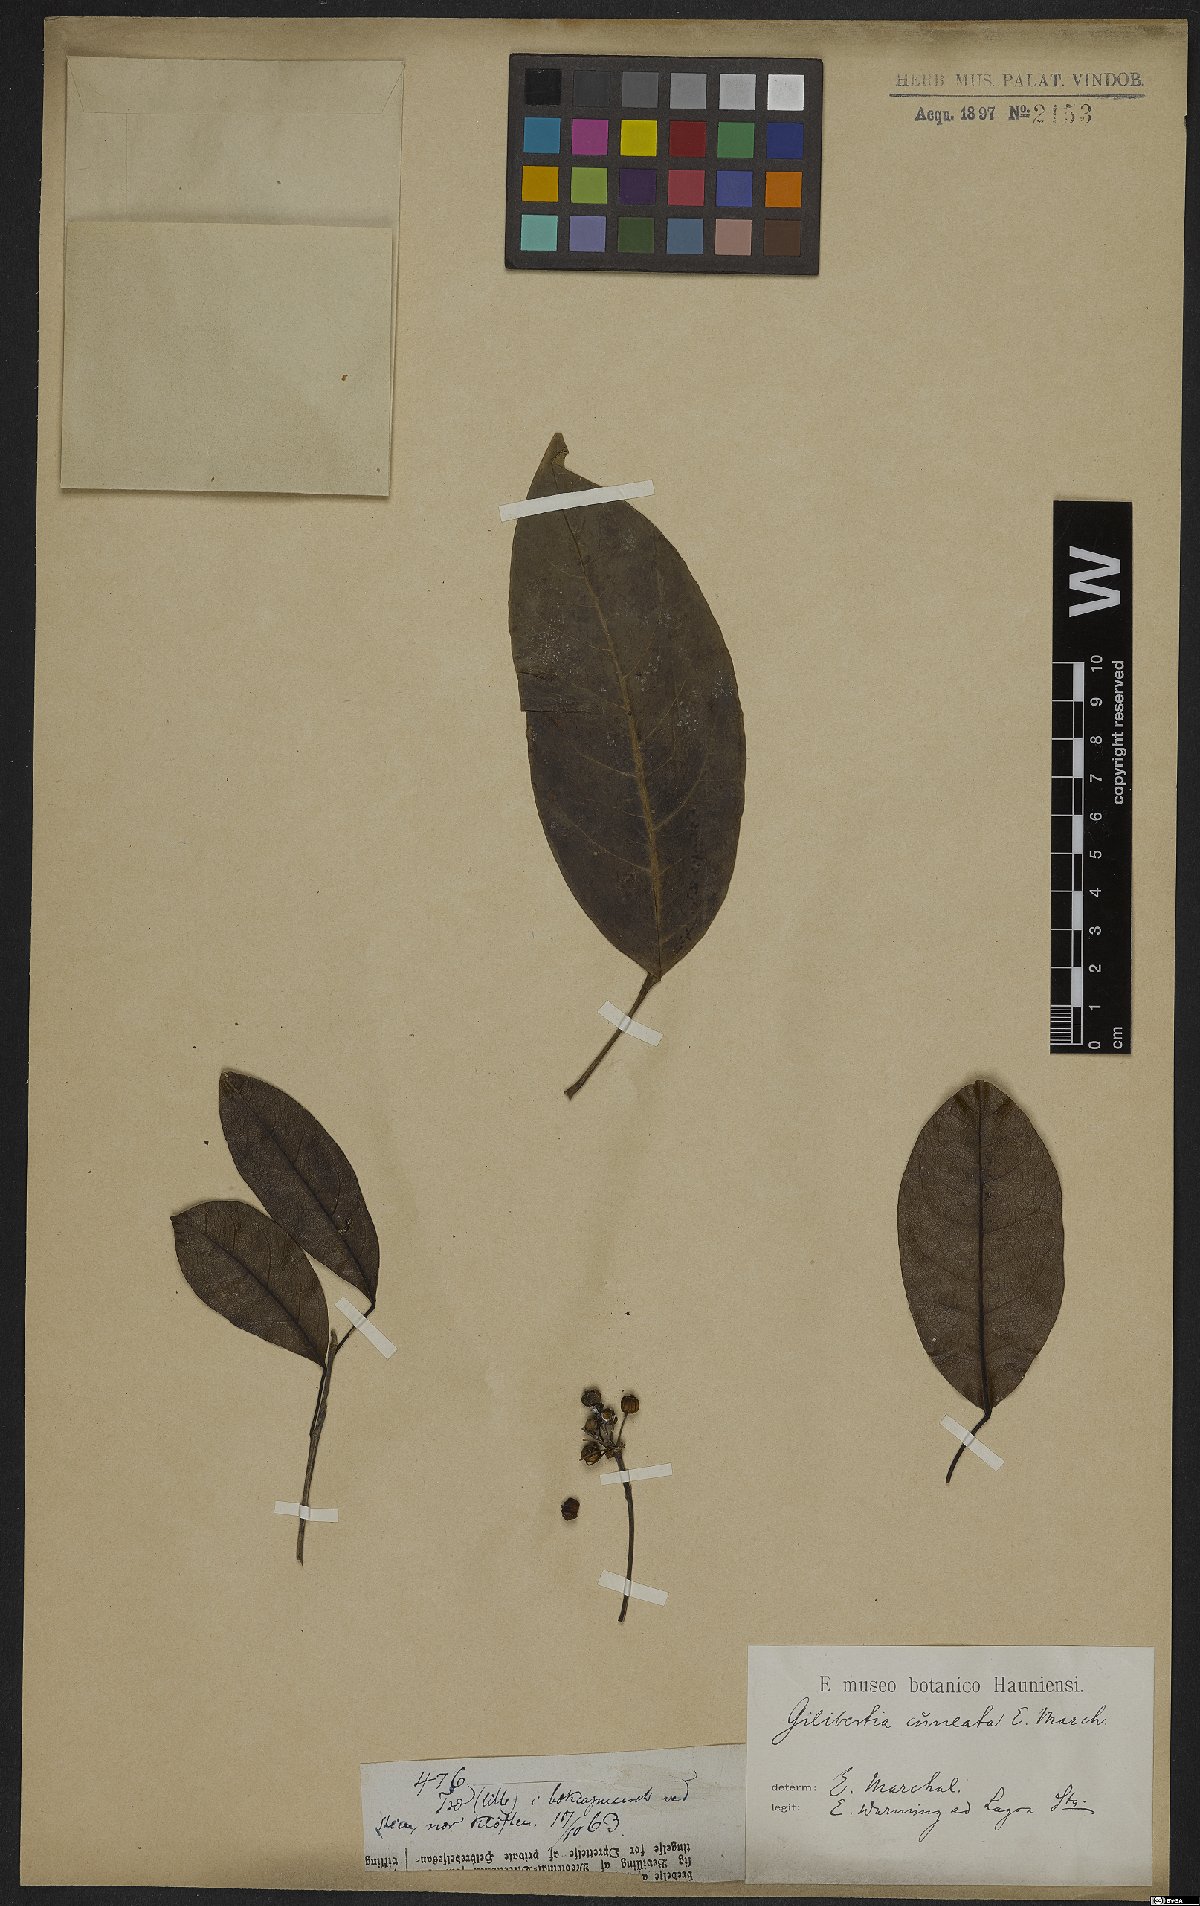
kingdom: Plantae
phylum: Tracheophyta
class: Magnoliopsida
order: Apiales
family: Araliaceae
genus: Dendropanax
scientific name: Dendropanax cuneatus
